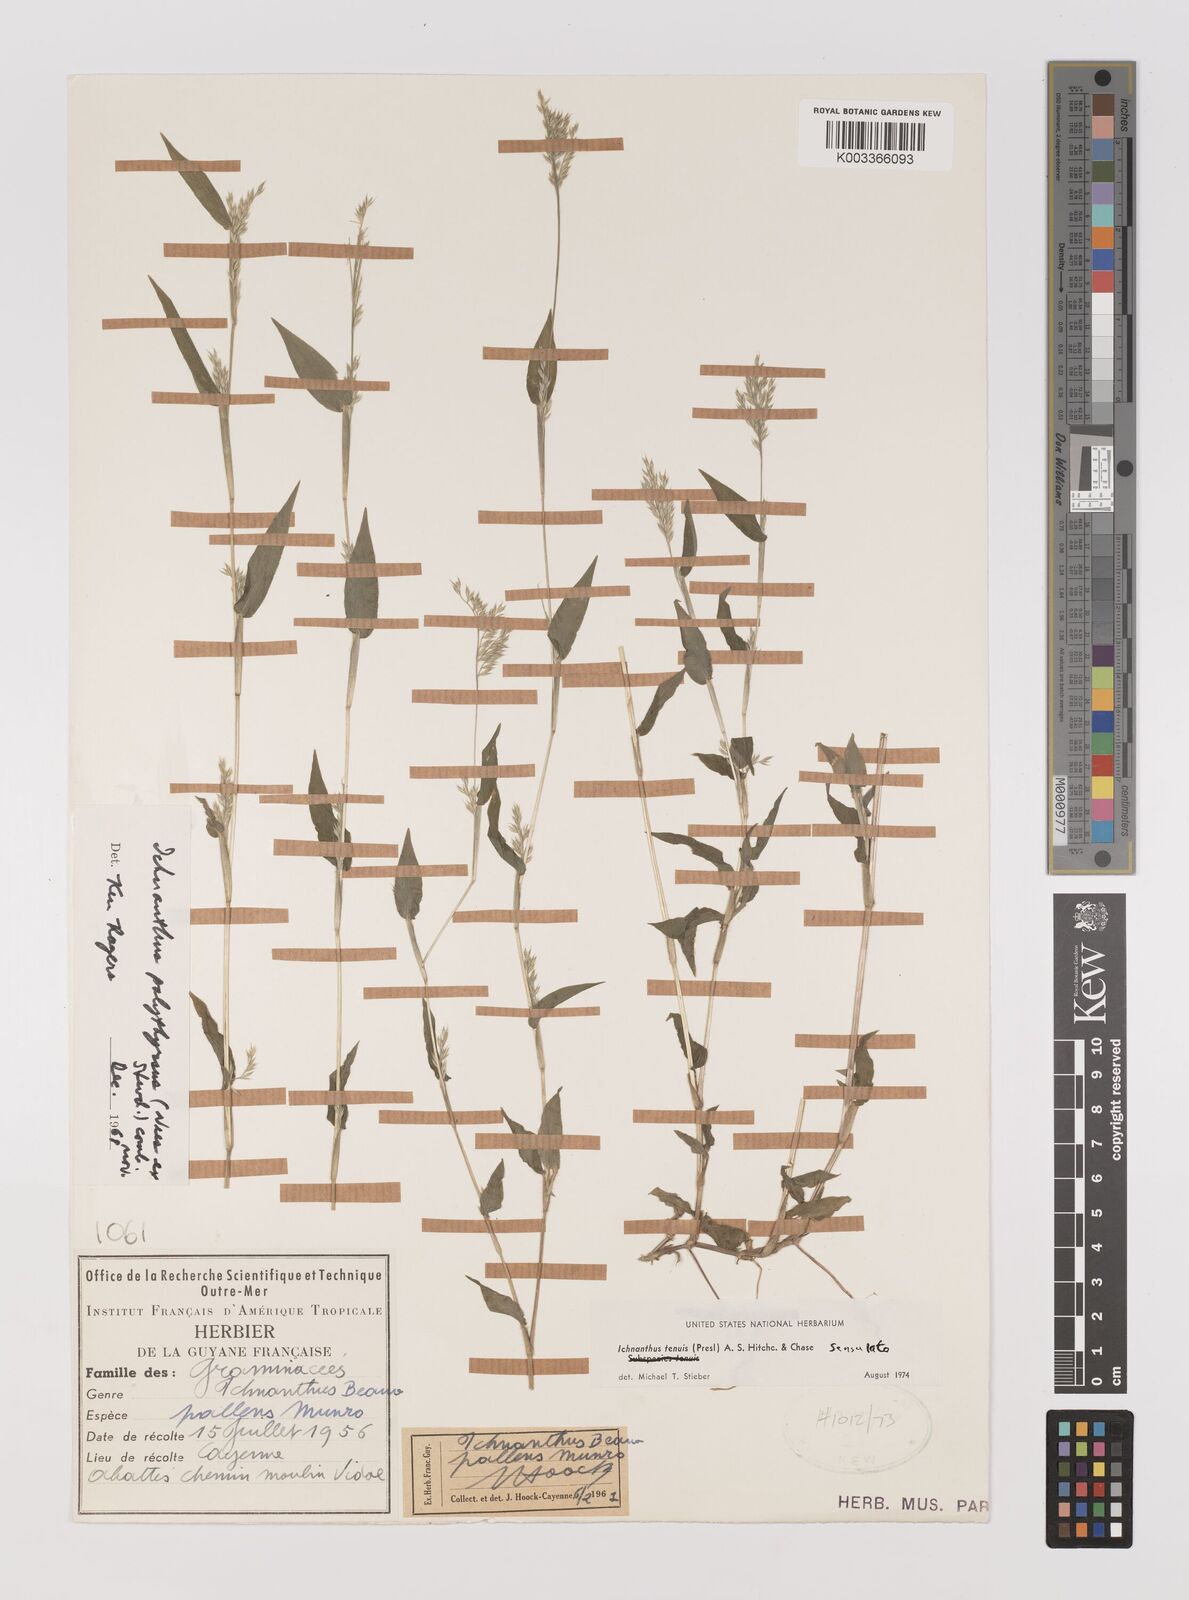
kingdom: Plantae
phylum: Tracheophyta
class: Liliopsida
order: Poales
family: Poaceae
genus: Ichnanthus
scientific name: Ichnanthus tenuis
